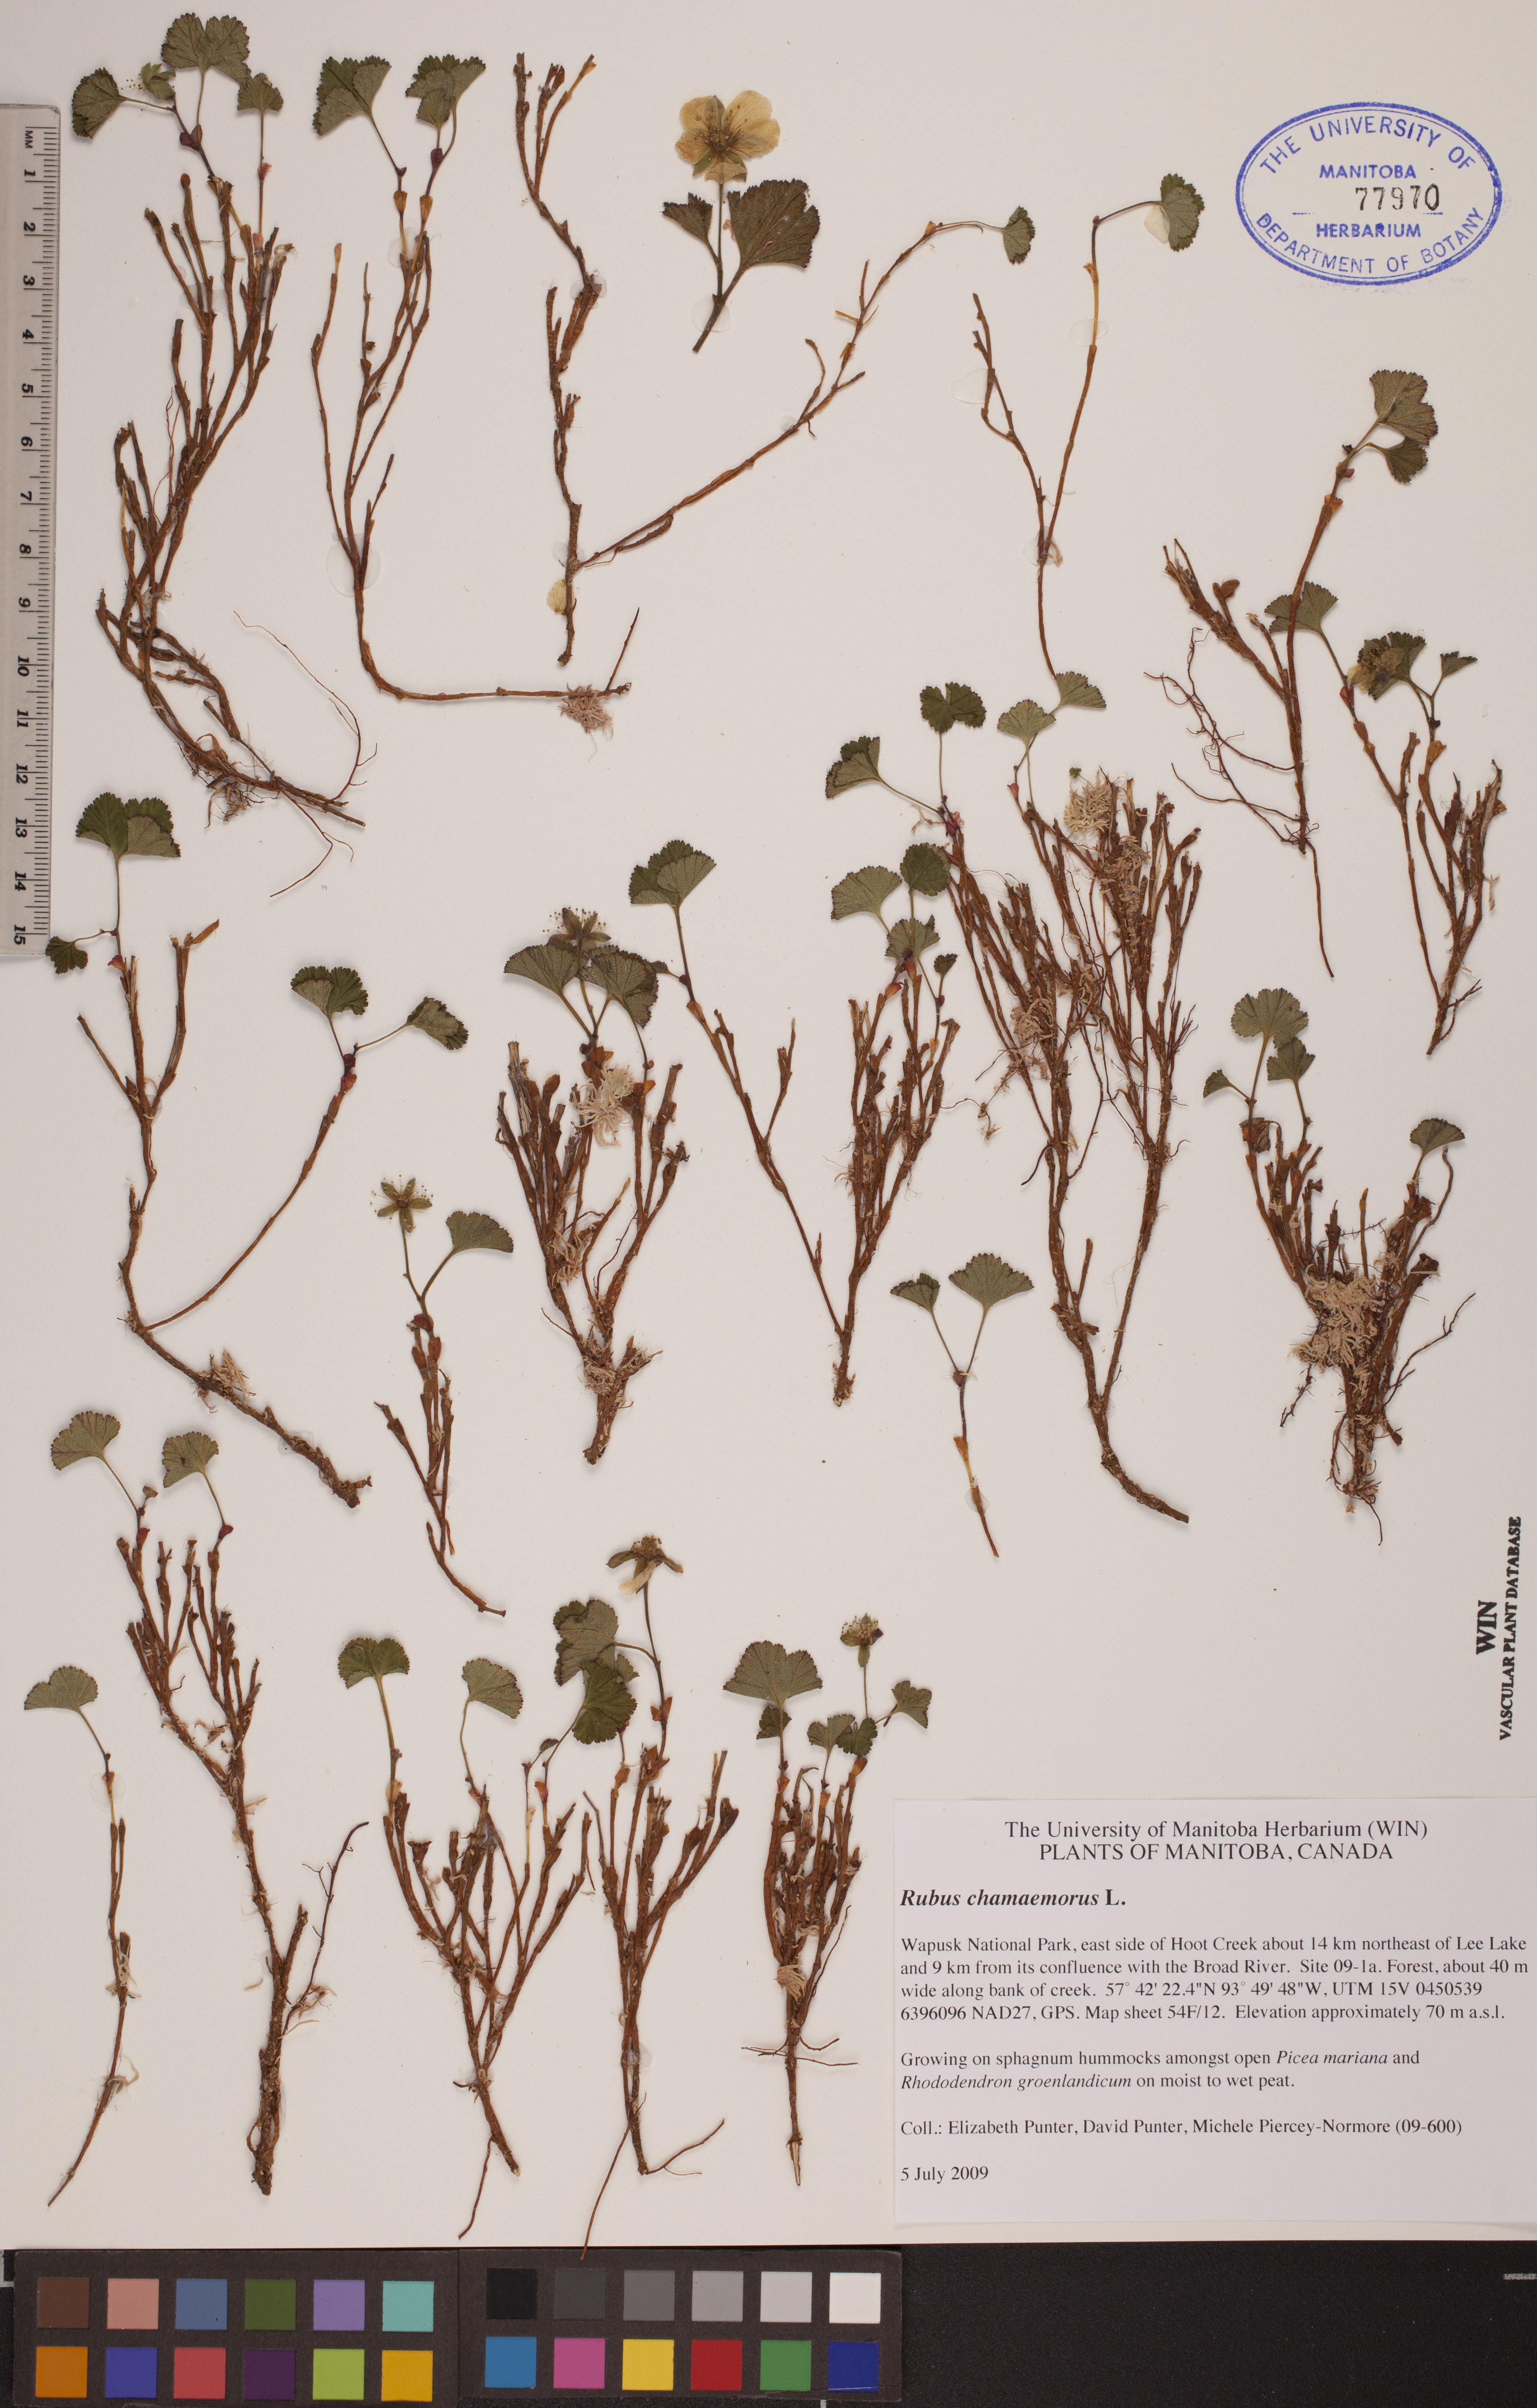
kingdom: Plantae
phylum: Tracheophyta
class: Magnoliopsida
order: Rosales
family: Rosaceae
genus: Rubus
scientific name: Rubus chamaemorus
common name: Cloudberry
